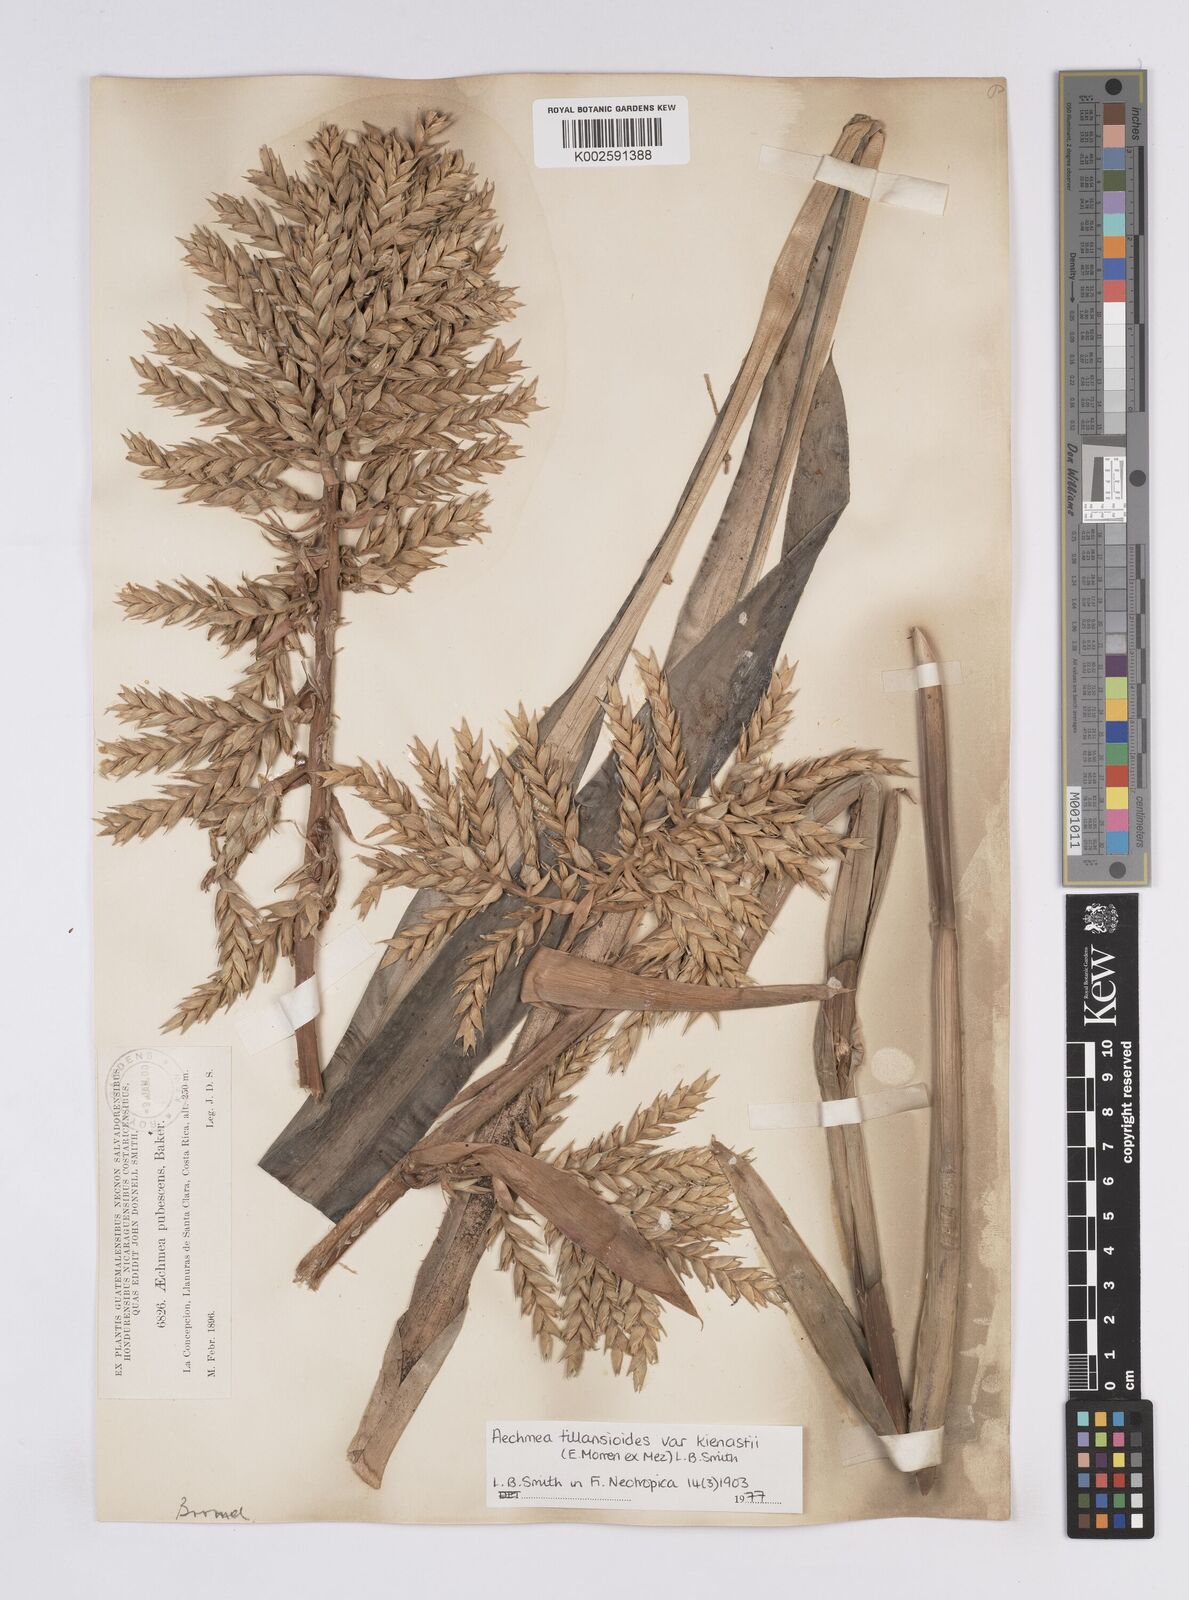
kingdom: Plantae
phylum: Tracheophyta
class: Liliopsida
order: Poales
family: Bromeliaceae
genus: Aechmea
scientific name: Aechmea tillandsioides
